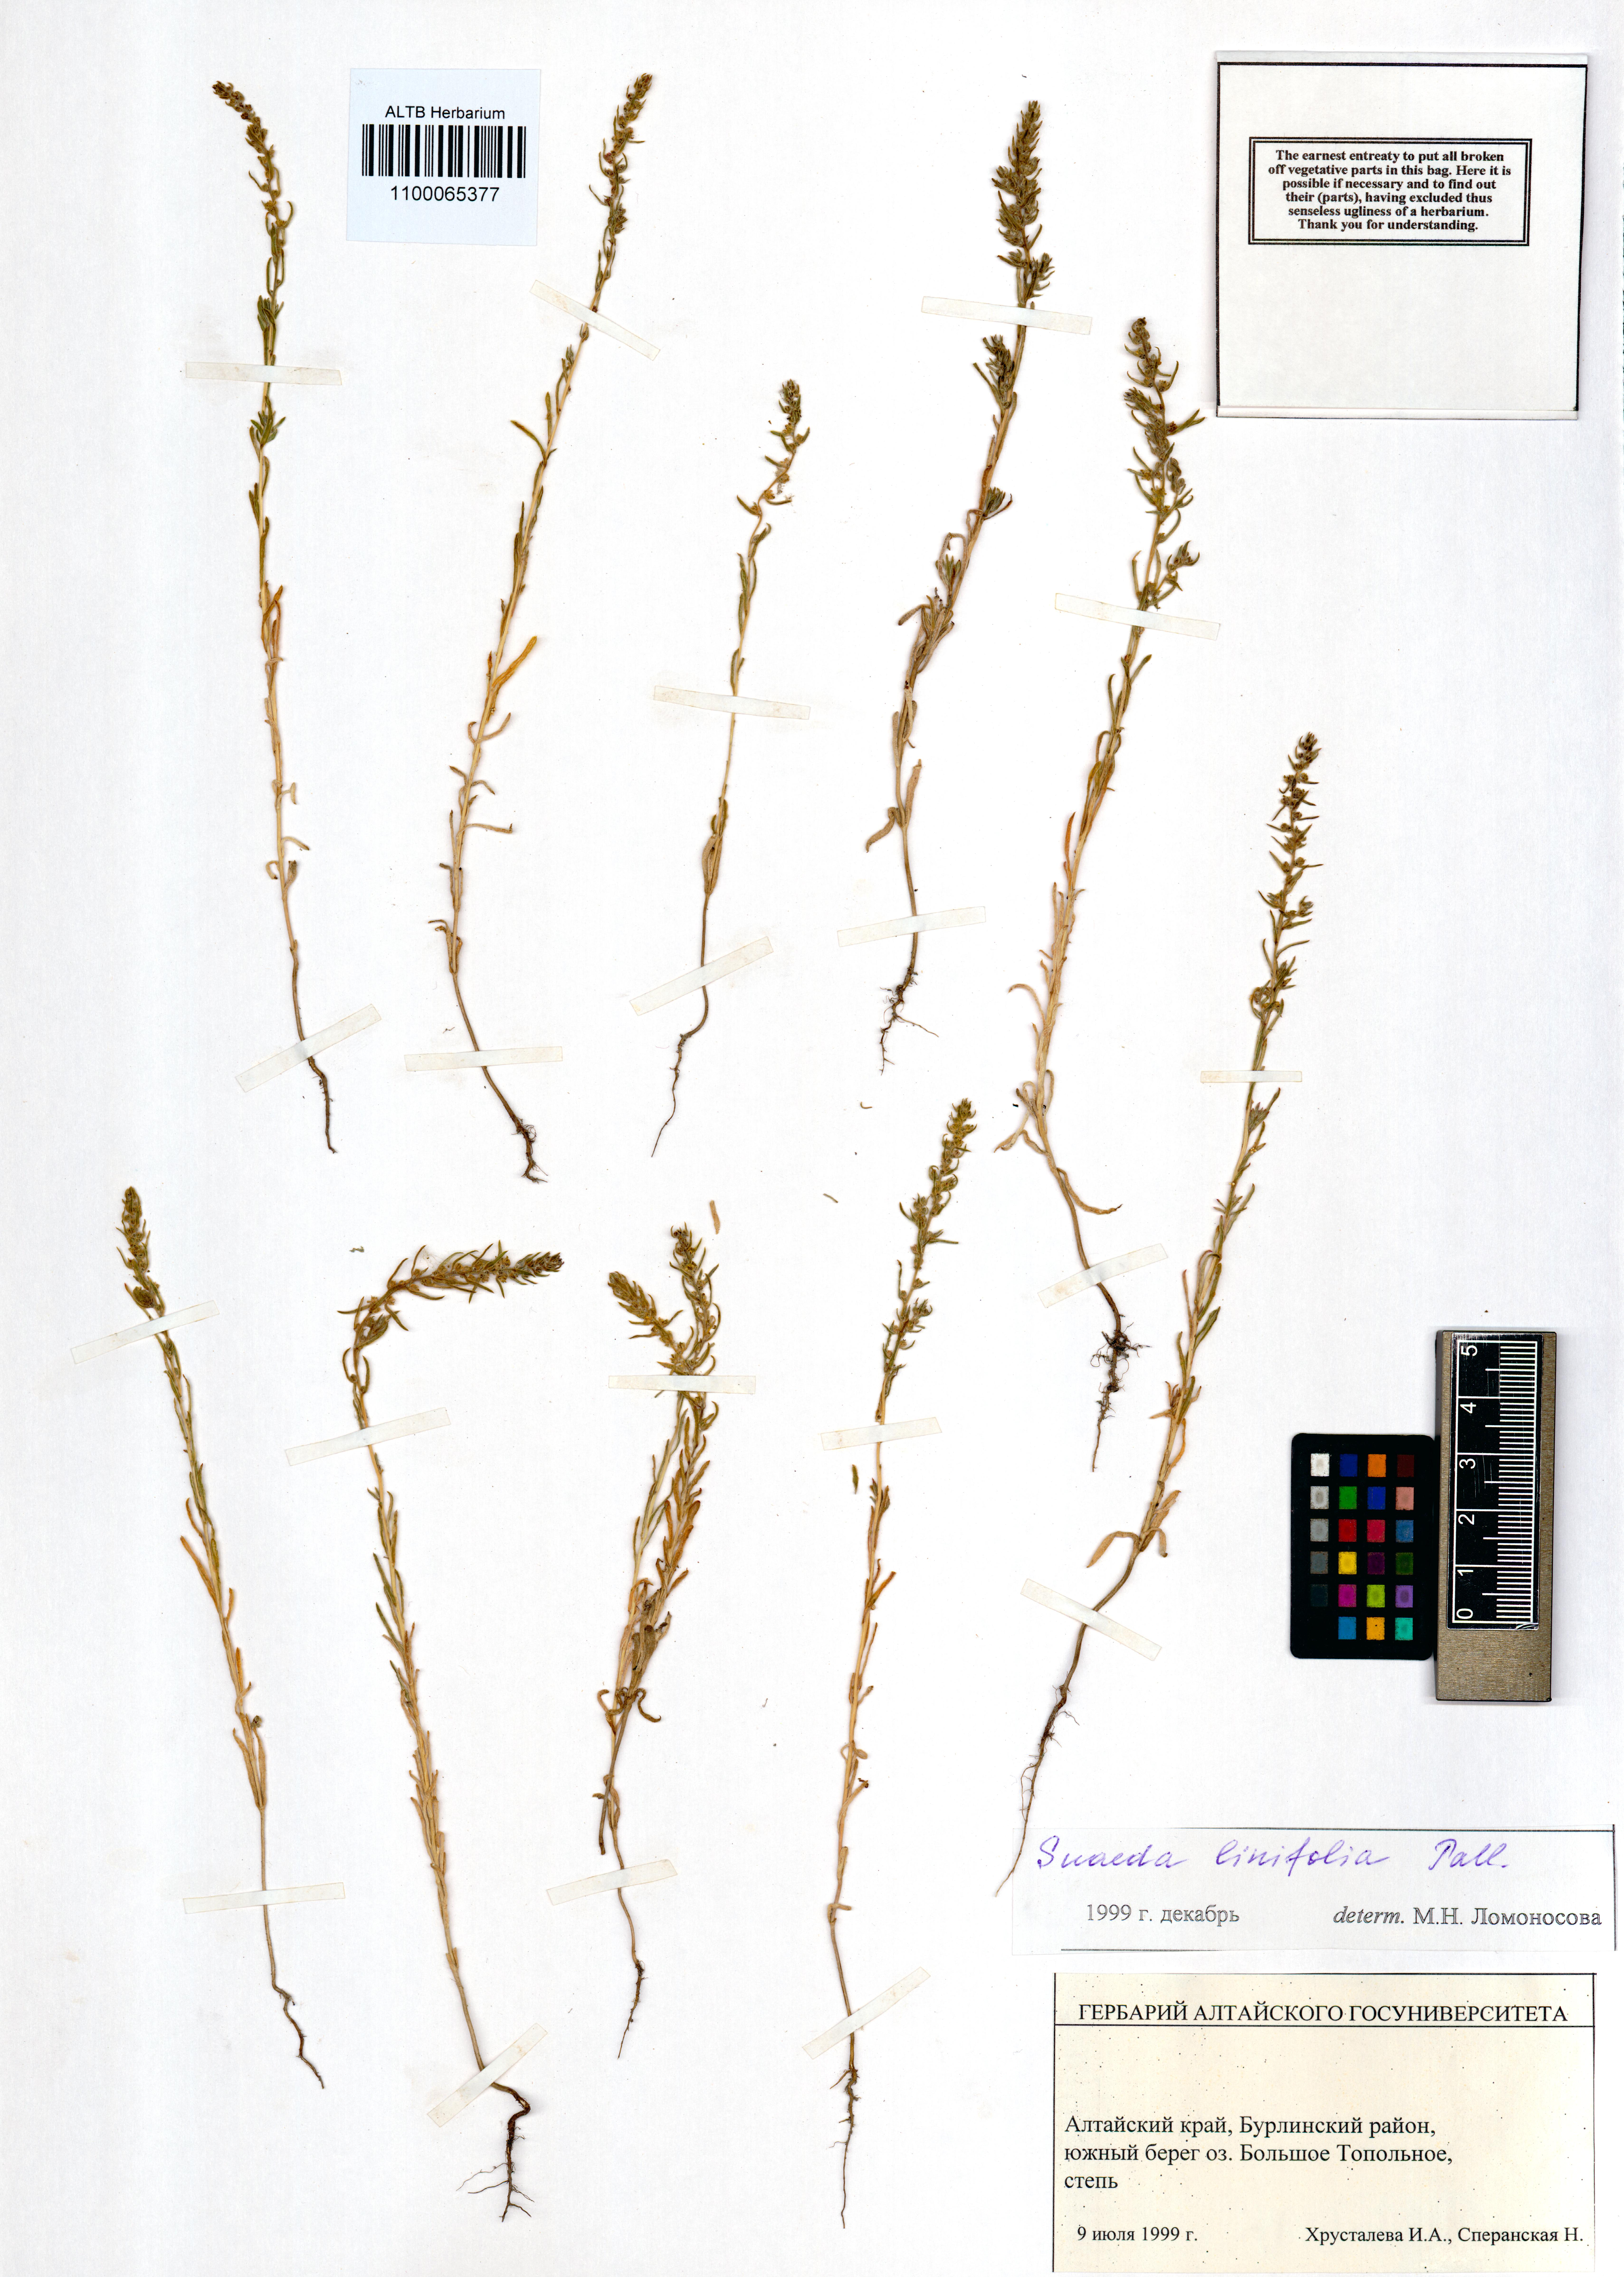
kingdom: Plantae
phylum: Tracheophyta
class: Magnoliopsida
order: Caryophyllales
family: Amaranthaceae
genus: Suaeda
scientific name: Suaeda linifolia
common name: Pin-leaf seepweed
